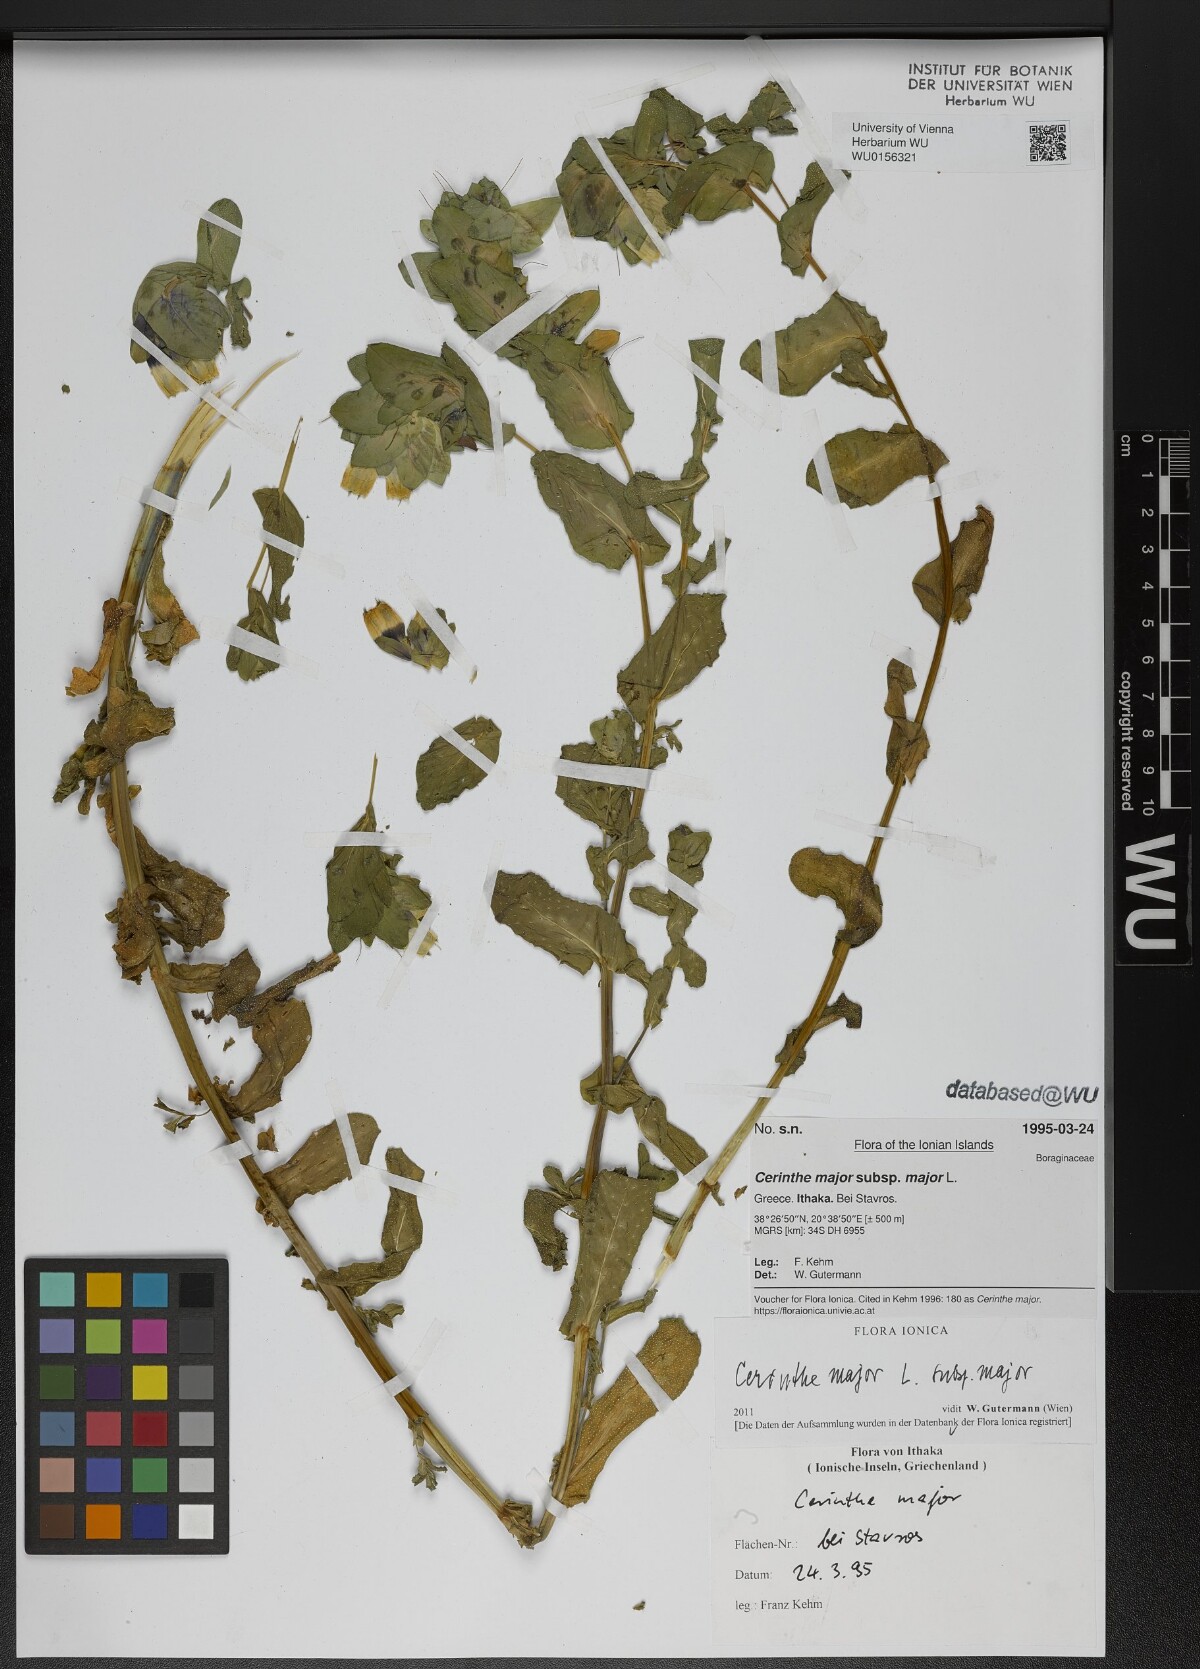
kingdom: Plantae
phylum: Tracheophyta
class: Magnoliopsida
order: Boraginales
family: Boraginaceae
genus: Cerinthe
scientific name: Cerinthe major
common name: Greater honeywort
